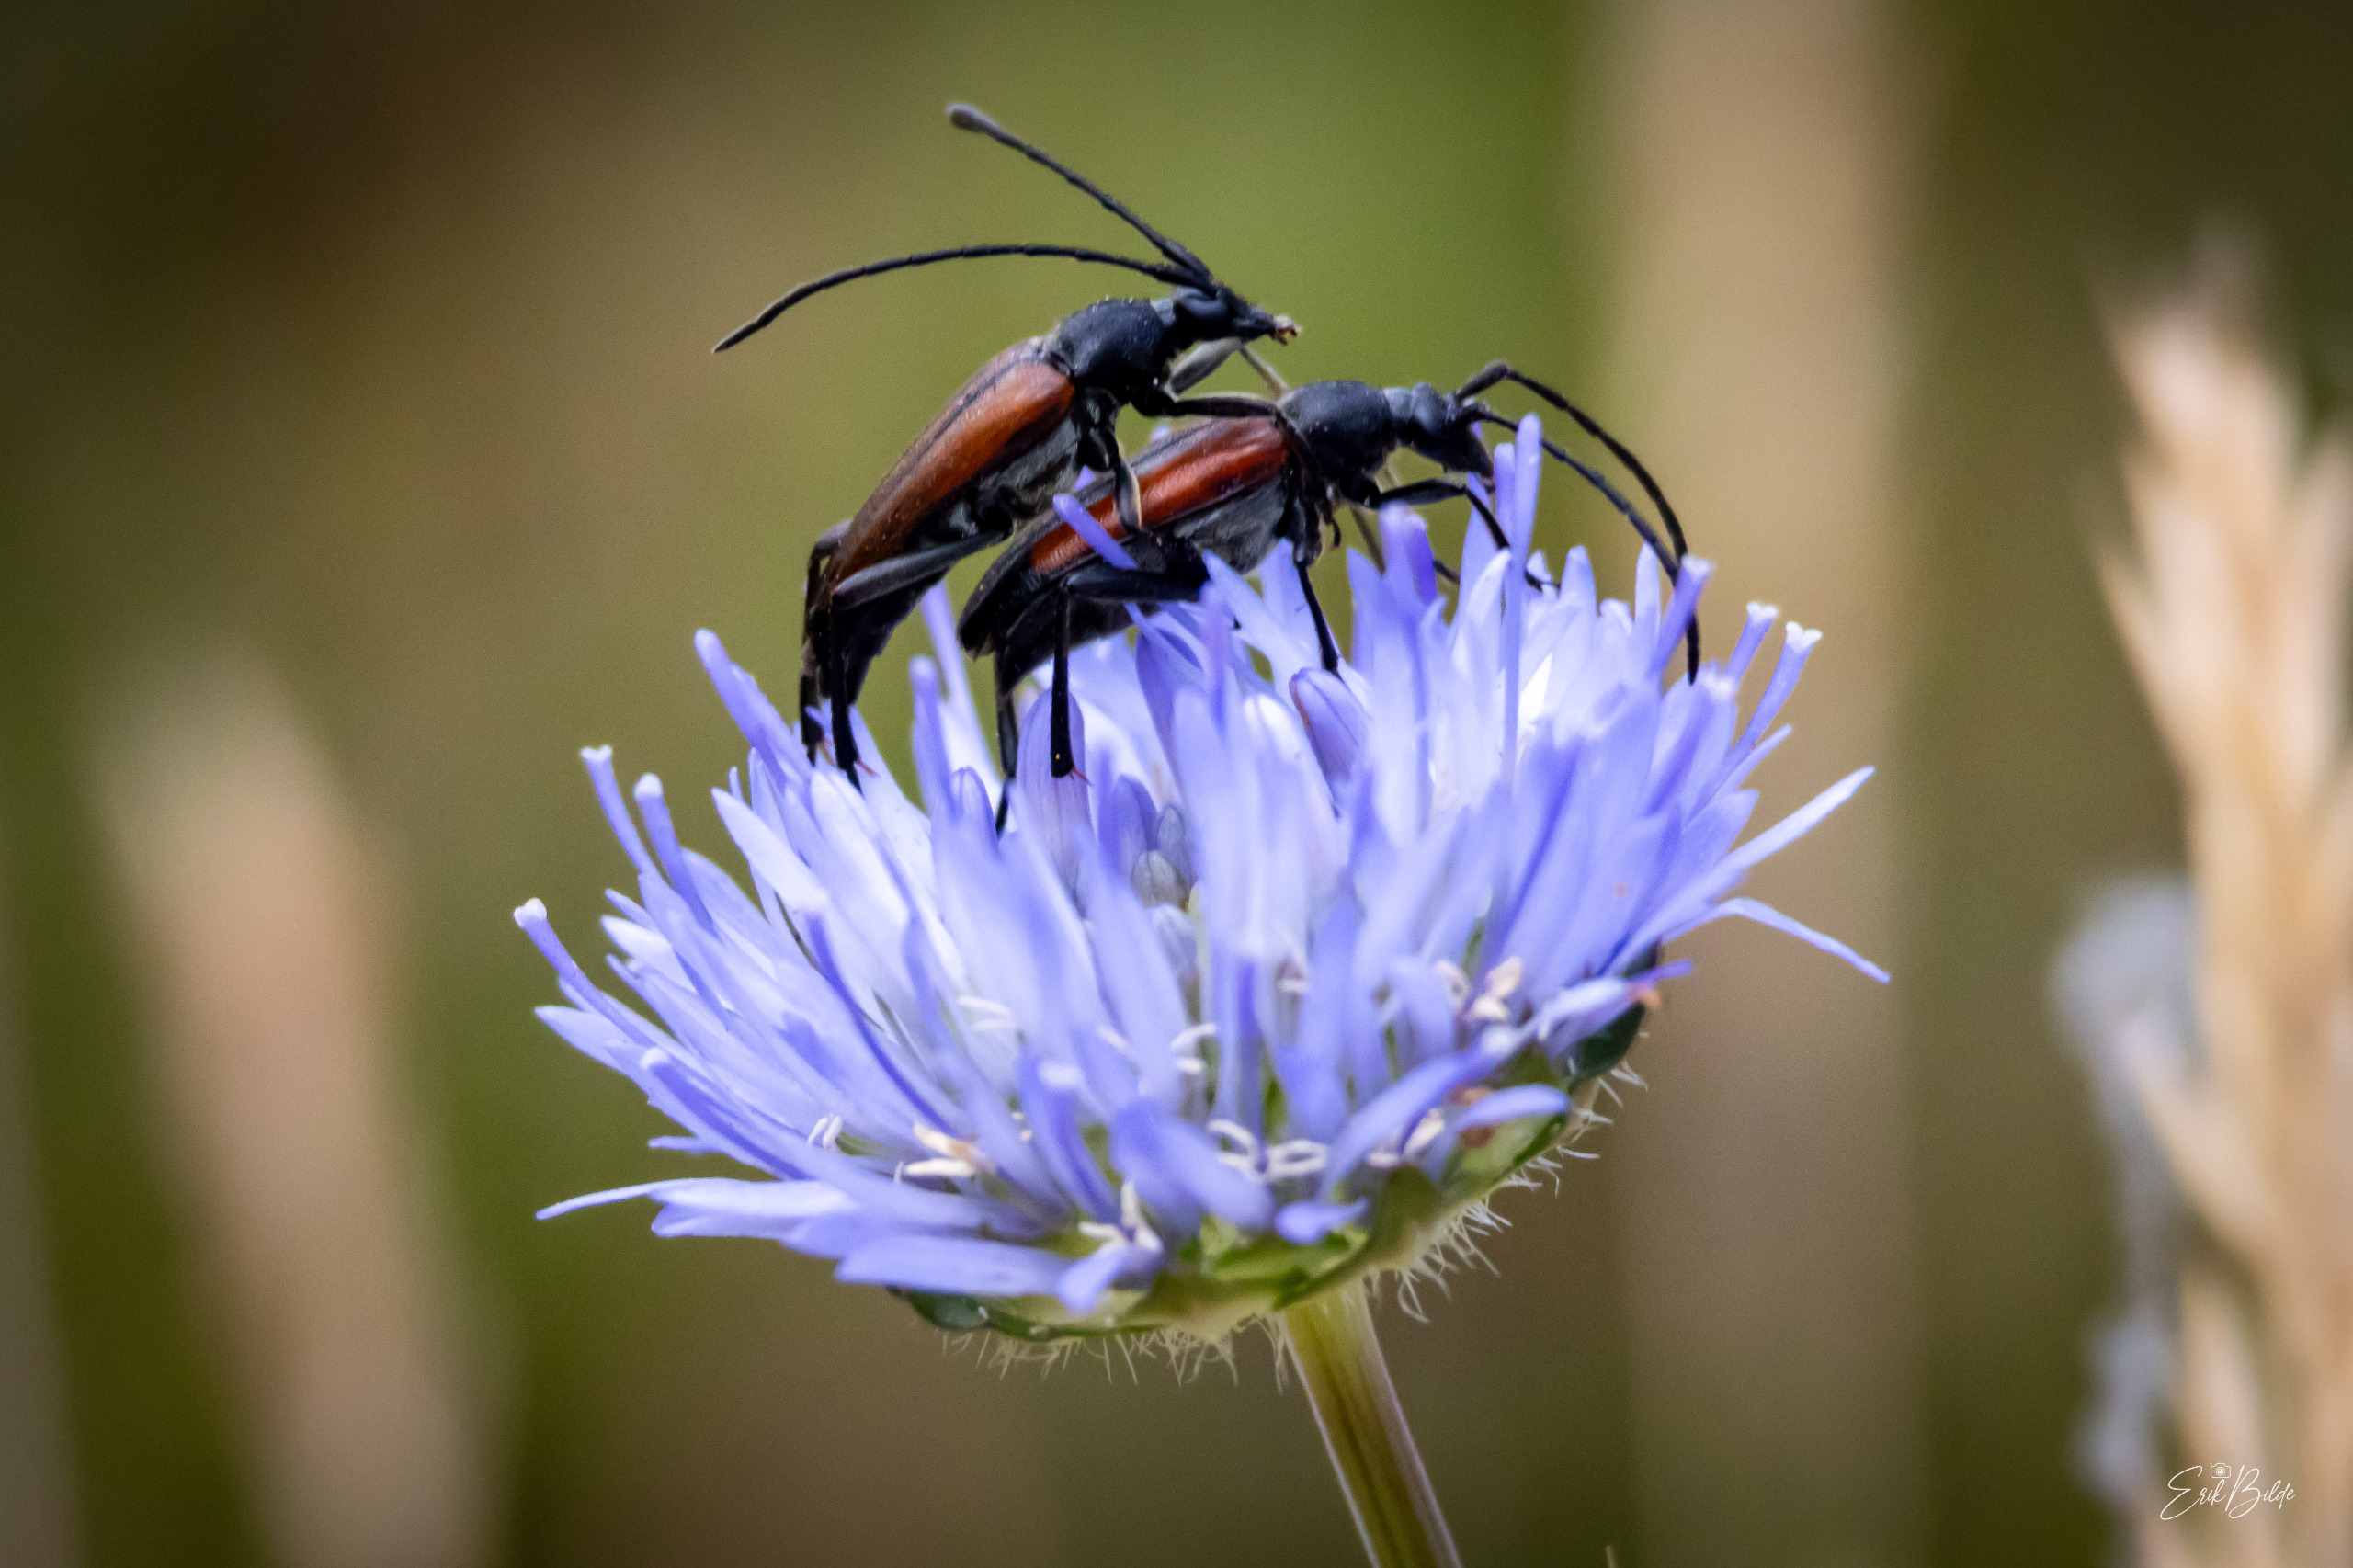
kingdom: Animalia
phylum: Arthropoda
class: Insecta
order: Coleoptera
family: Cerambycidae
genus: Stenurella
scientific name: Stenurella melanura
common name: Sortsømmet blomsterbuk
